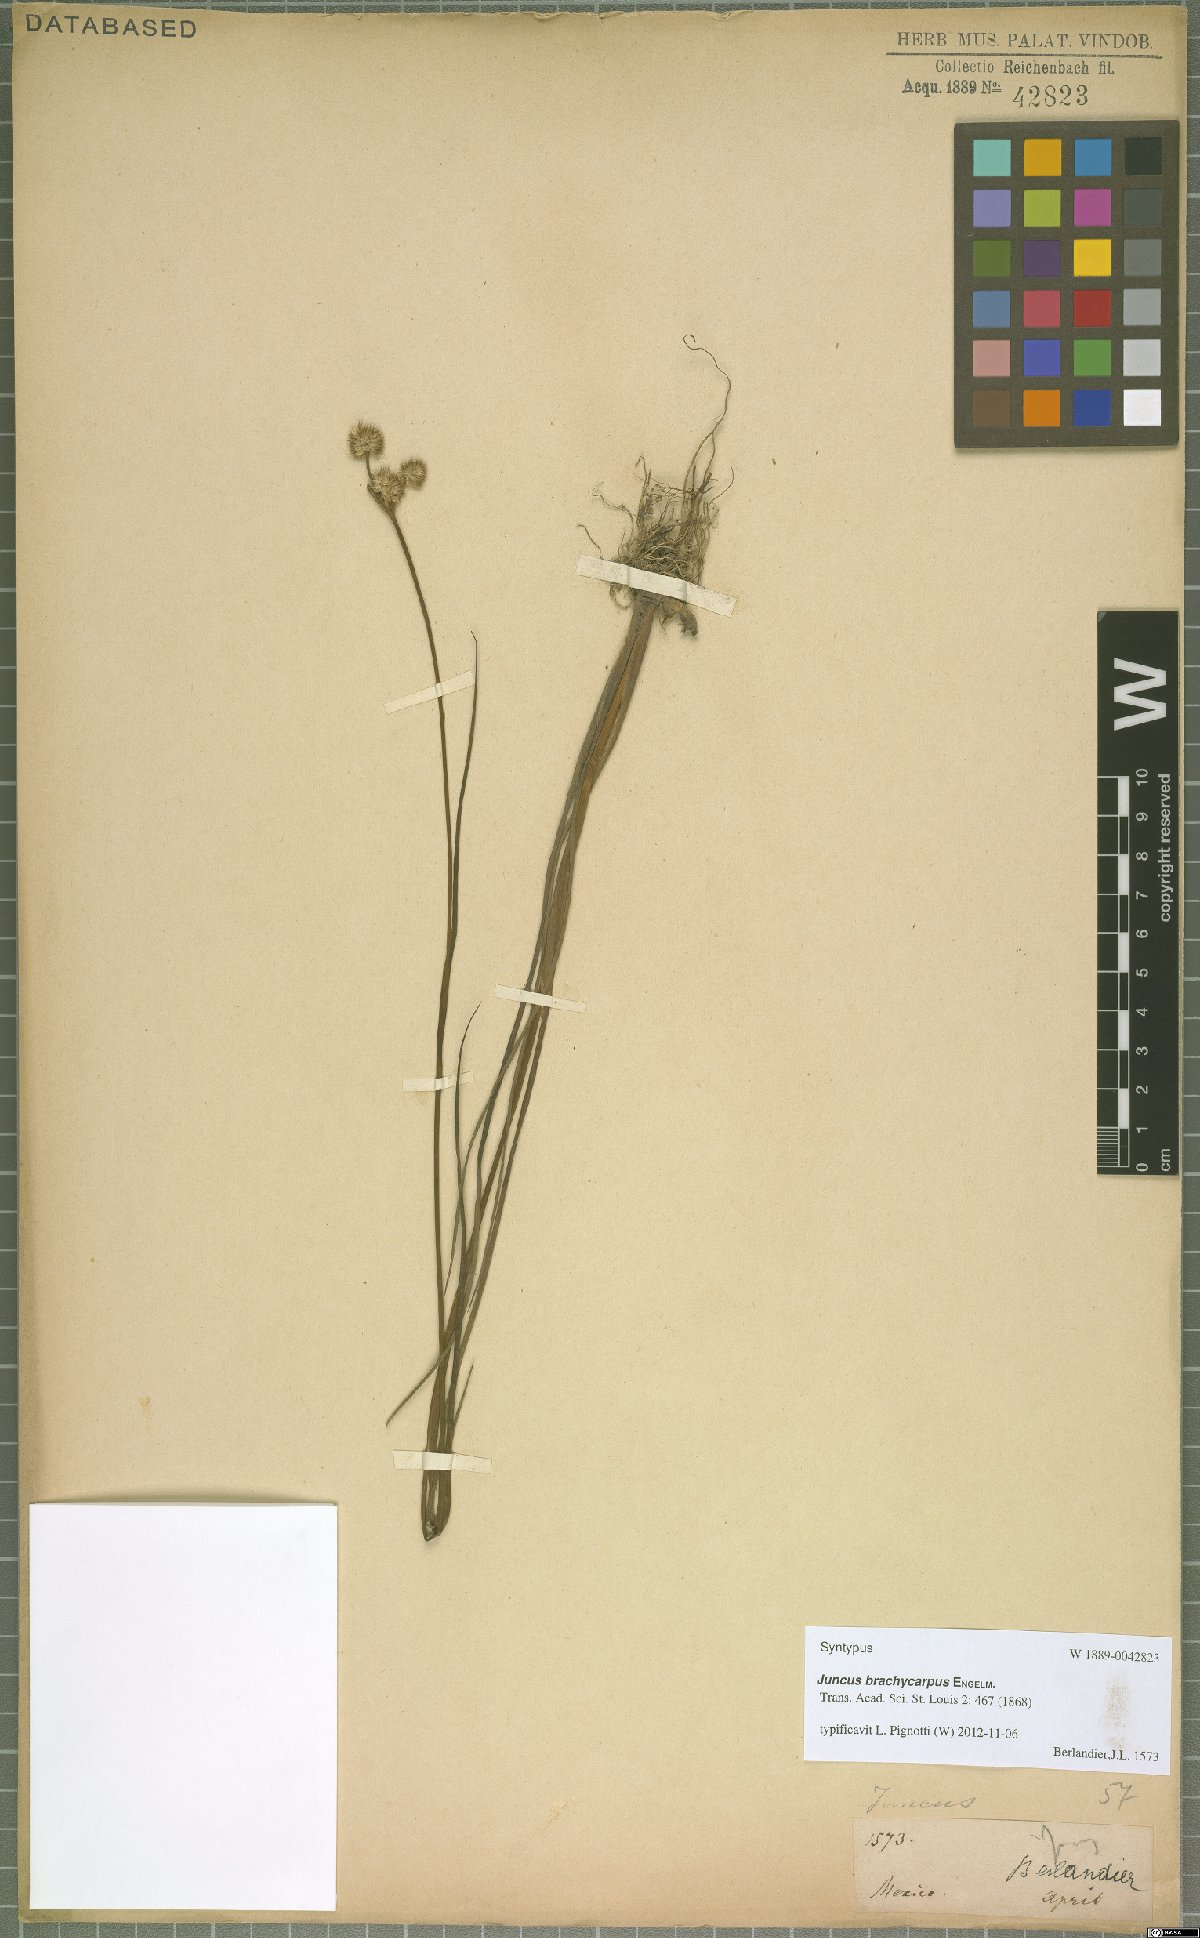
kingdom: Plantae
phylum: Tracheophyta
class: Liliopsida
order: Poales
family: Juncaceae
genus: Juncus
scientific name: Juncus brachycarpus
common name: Shore rush
